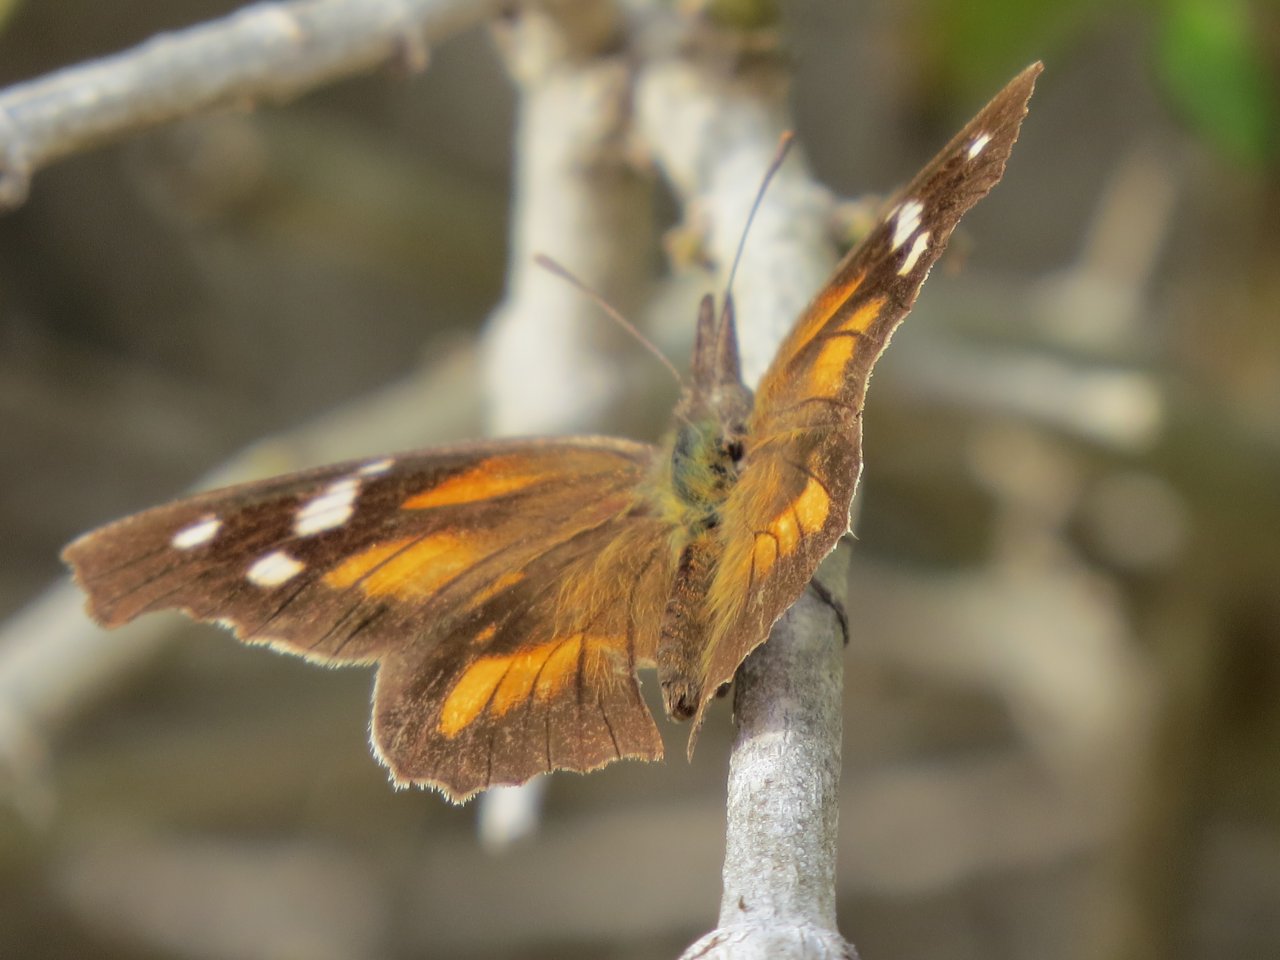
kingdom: Animalia
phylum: Arthropoda
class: Insecta
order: Lepidoptera
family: Nymphalidae
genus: Libytheana
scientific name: Libytheana carinenta
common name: American Snout
